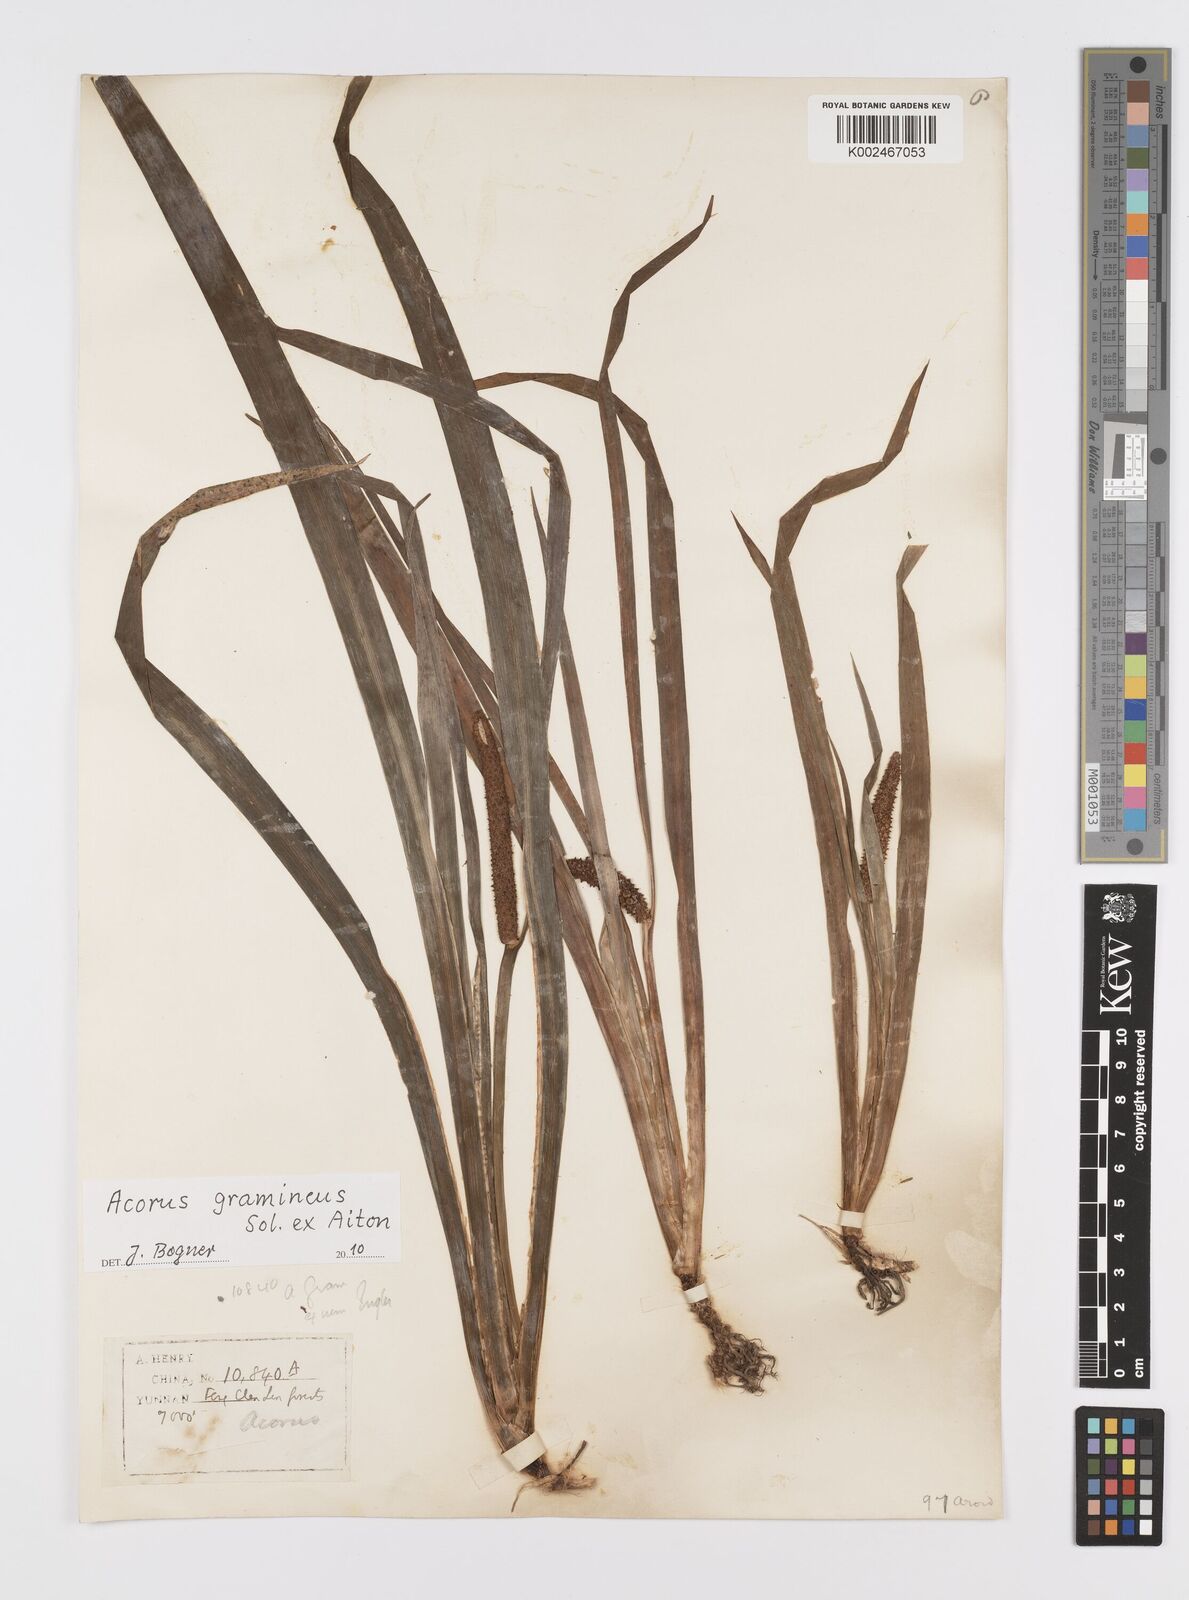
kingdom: Plantae
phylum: Tracheophyta
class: Liliopsida
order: Acorales
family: Acoraceae
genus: Acorus
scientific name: Acorus gramineus
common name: Slender sweet-flag
